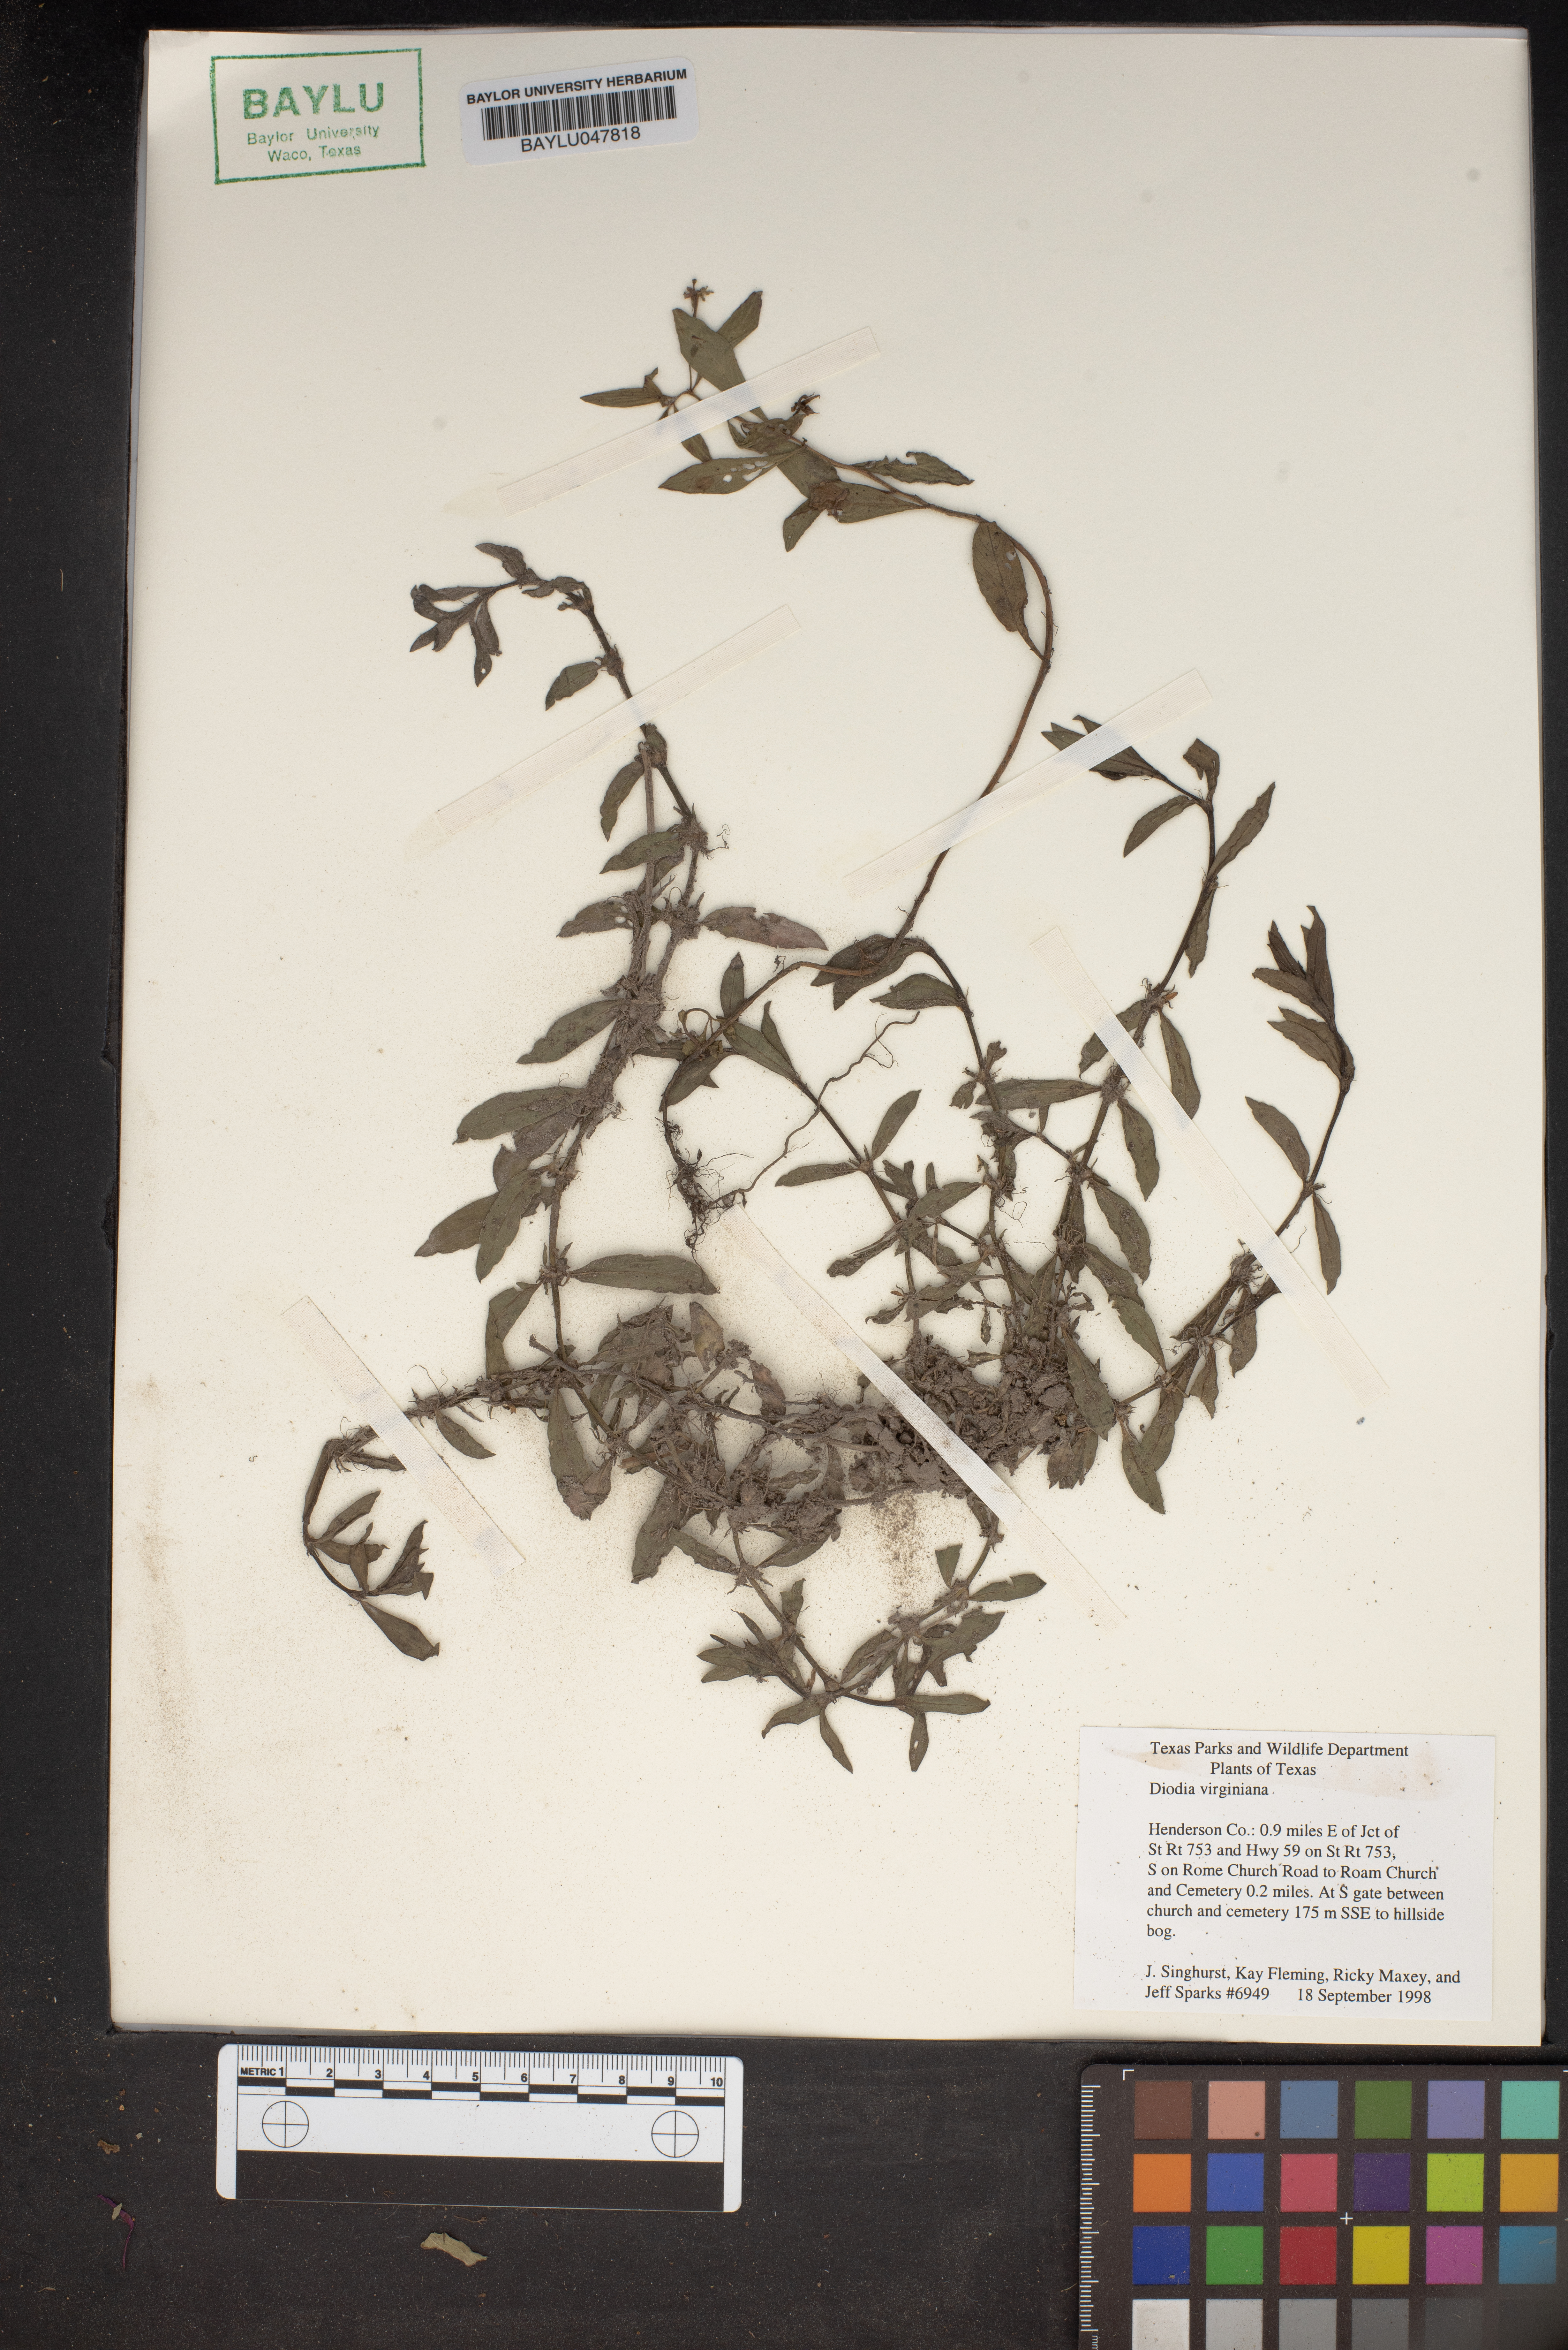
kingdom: Plantae
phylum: Tracheophyta
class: Magnoliopsida
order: Gentianales
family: Rubiaceae
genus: Diodia
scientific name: Diodia virginiana
